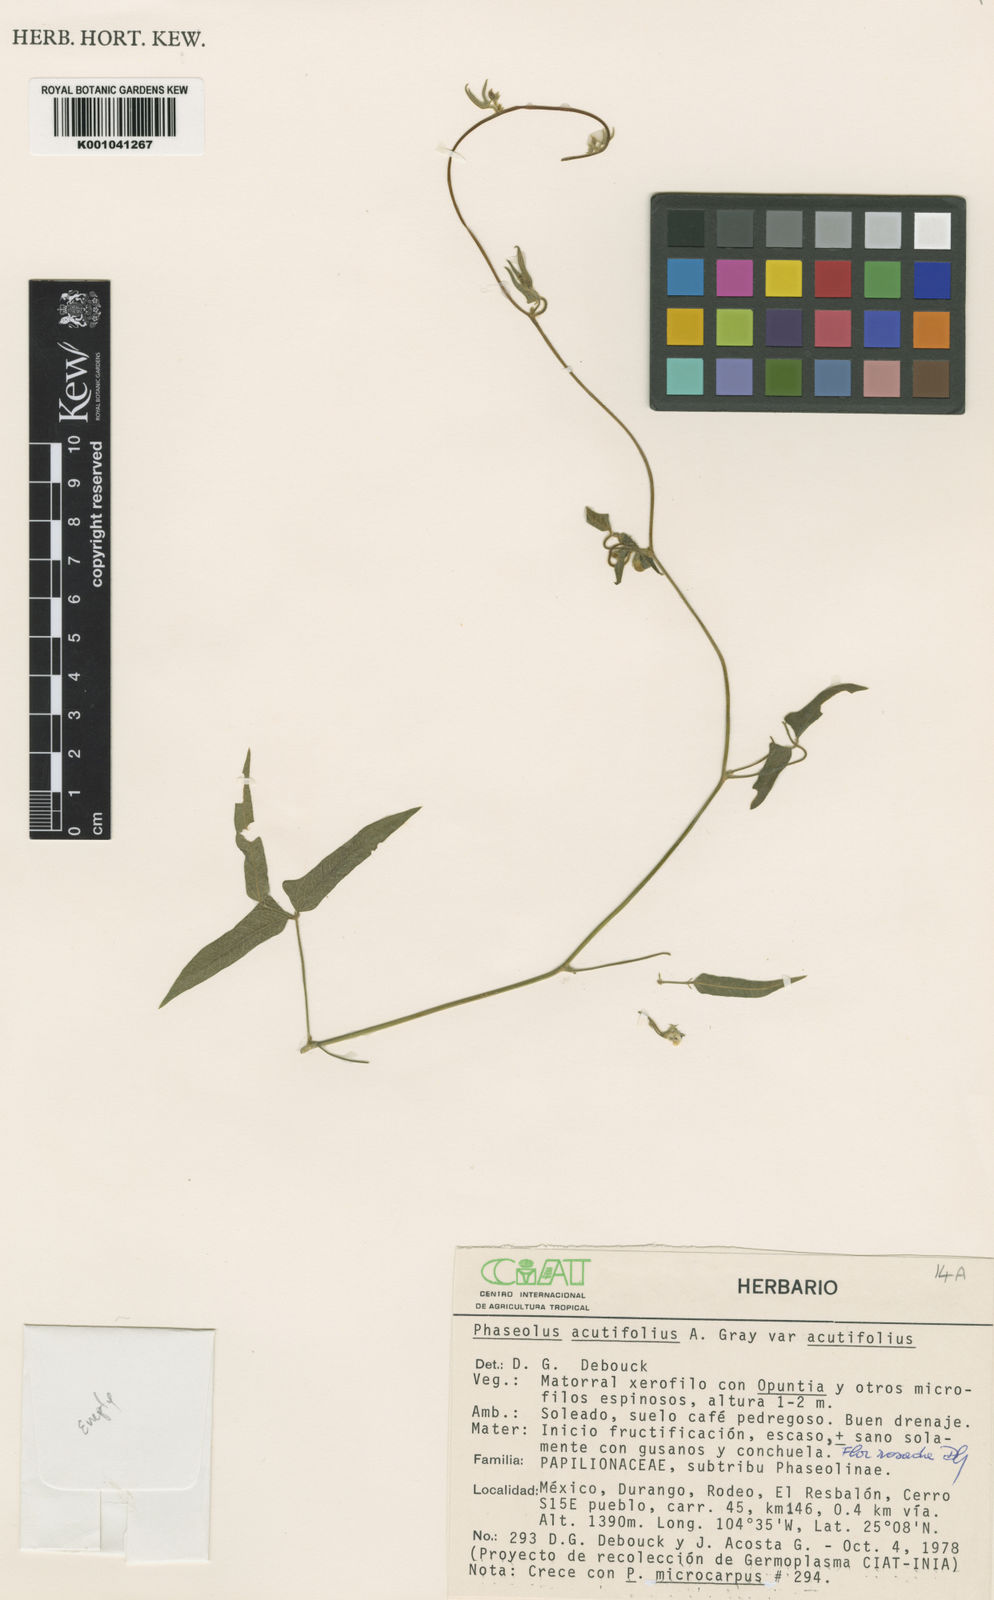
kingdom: Plantae
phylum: Tracheophyta
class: Magnoliopsida
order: Fabales
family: Fabaceae
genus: Phaseolus
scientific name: Phaseolus acutifolius
